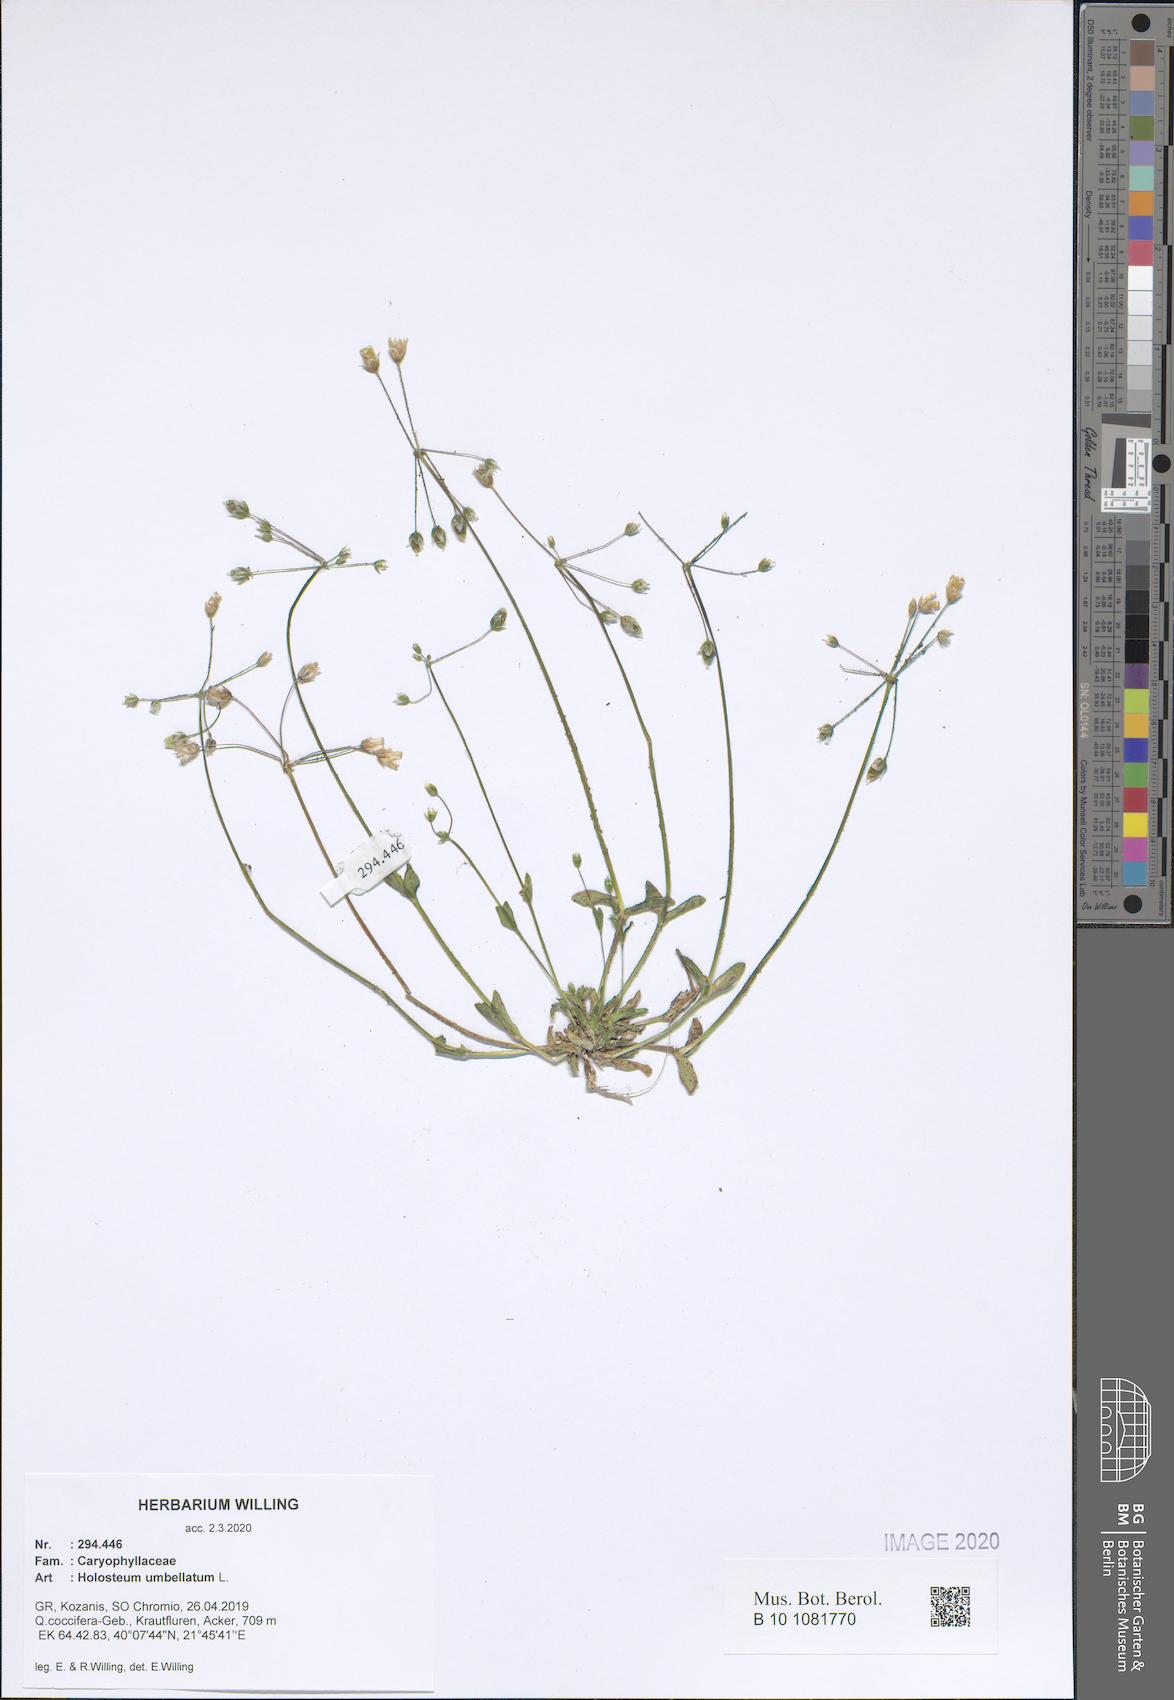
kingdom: Plantae
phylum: Tracheophyta
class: Magnoliopsida
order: Caryophyllales
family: Caryophyllaceae
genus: Holosteum
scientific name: Holosteum umbellatum
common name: Jagged chickweed
